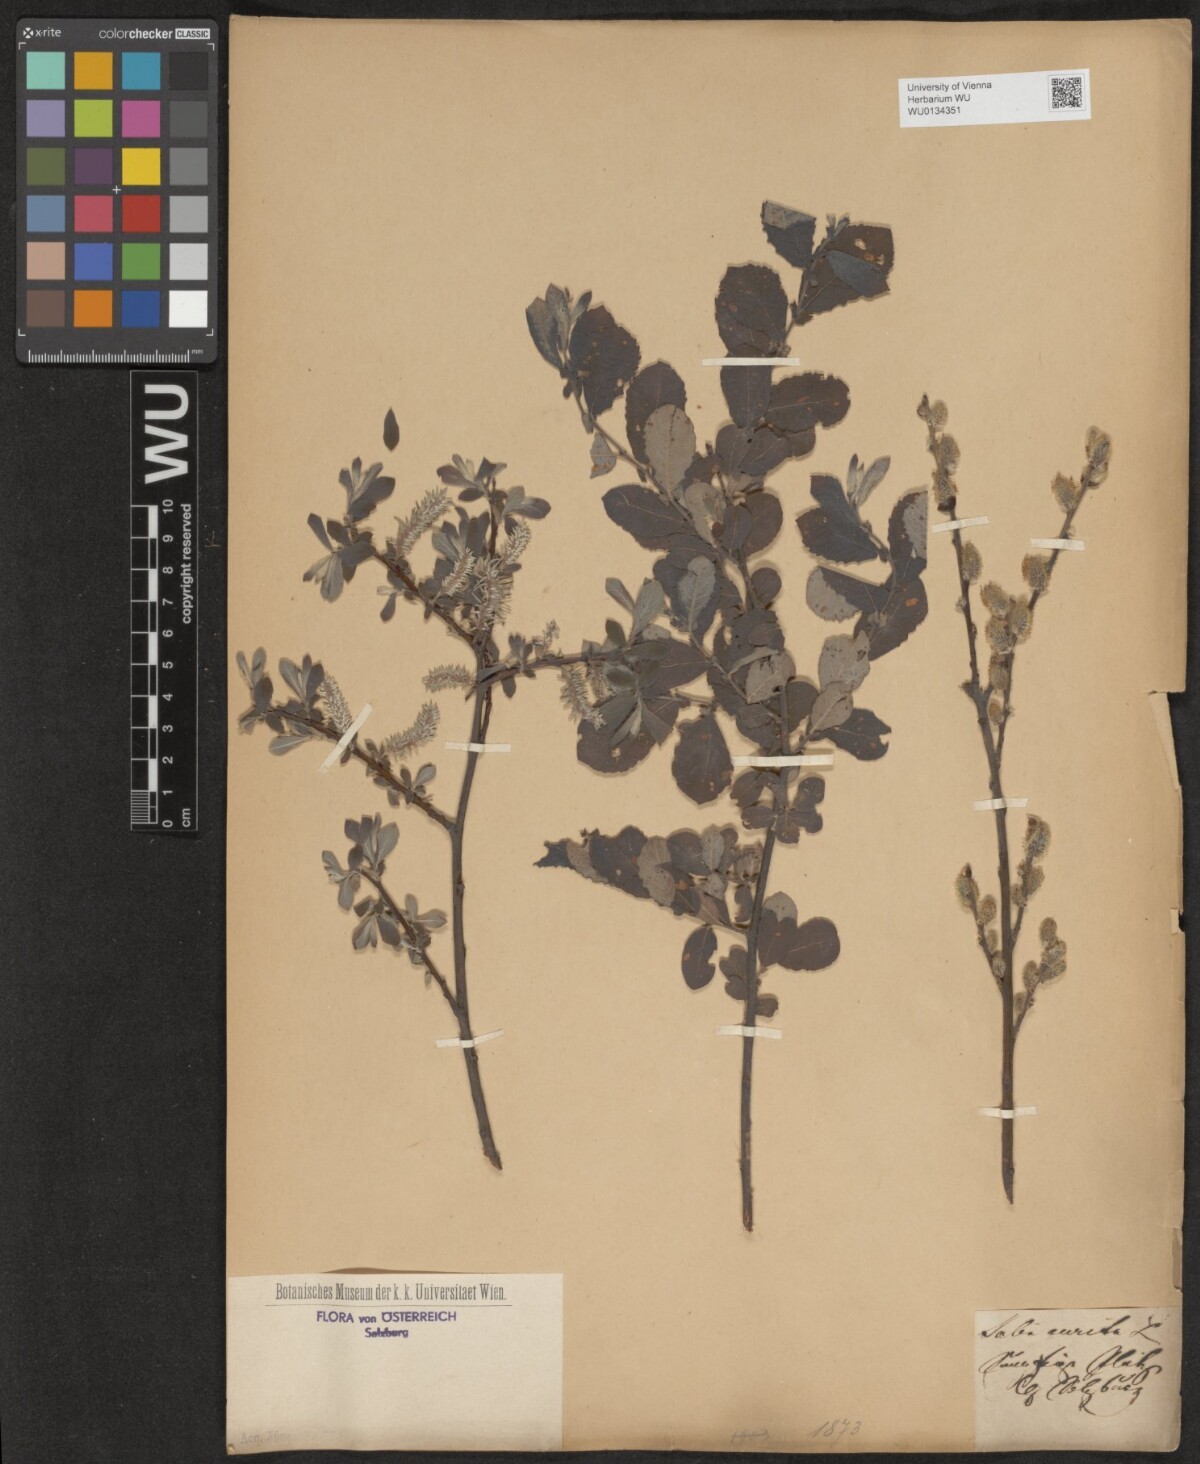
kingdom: Plantae
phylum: Tracheophyta
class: Magnoliopsida
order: Malpighiales
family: Salicaceae
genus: Salix
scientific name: Salix aurita
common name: Eared willow
